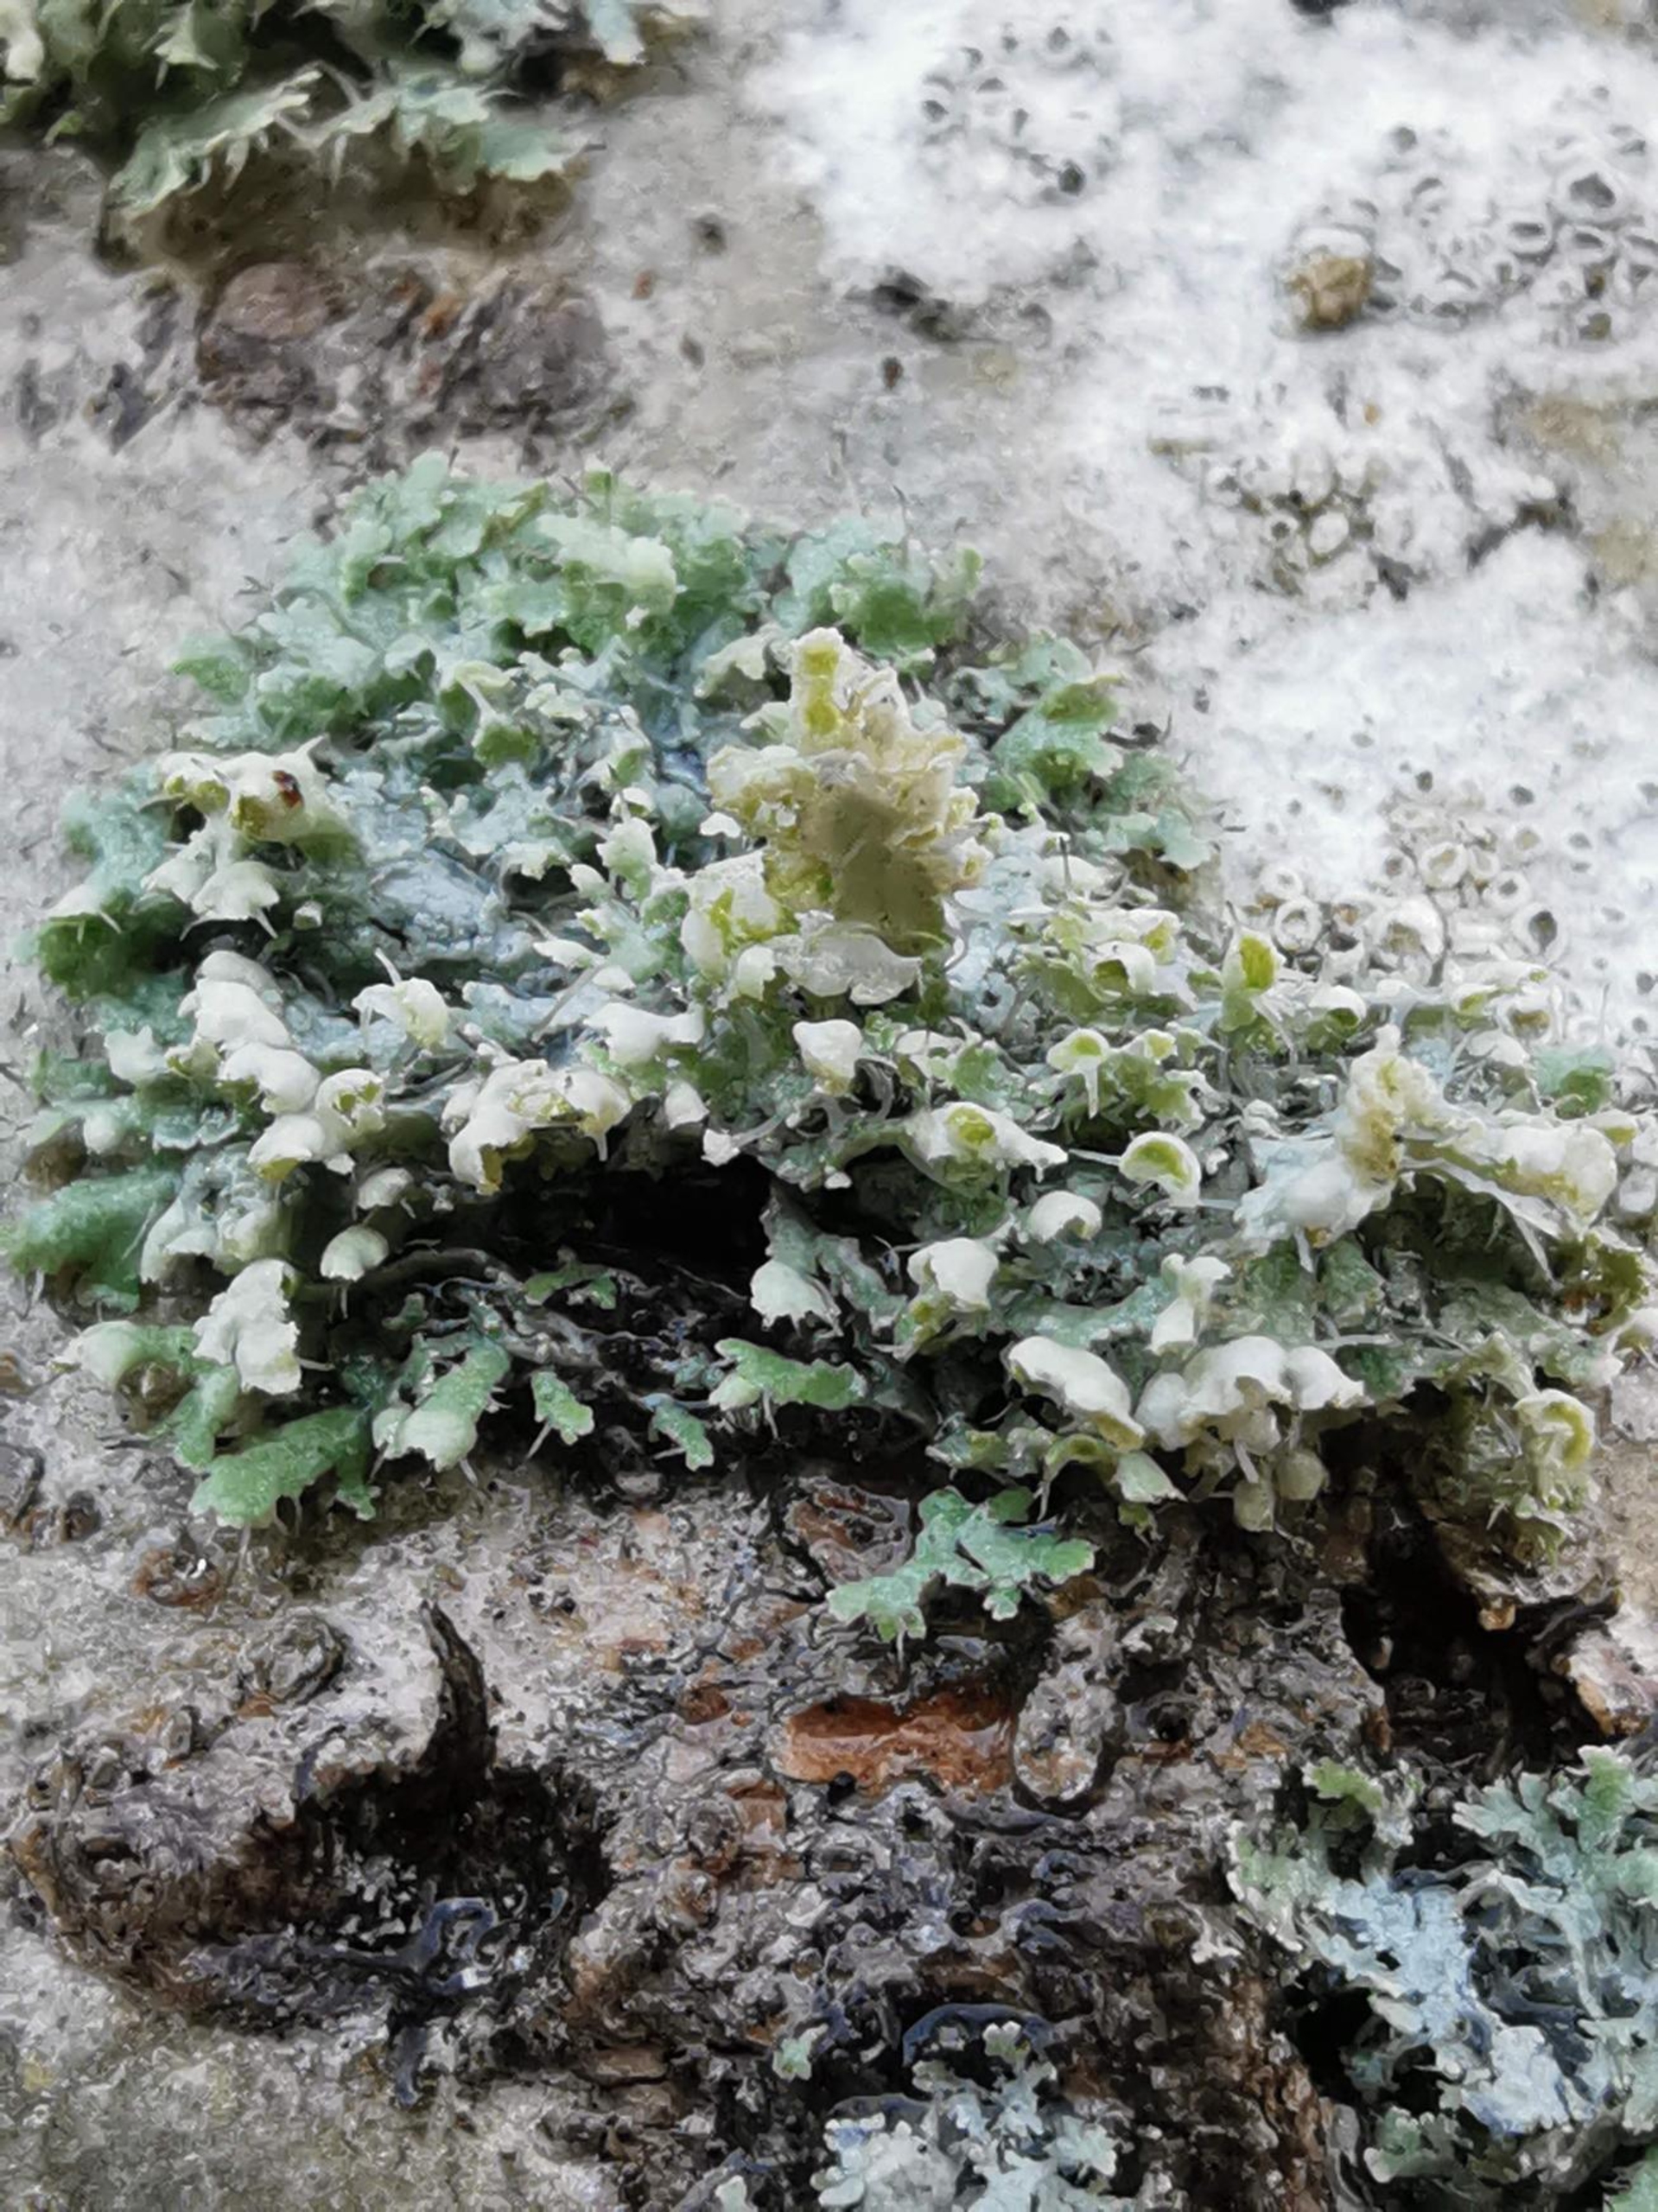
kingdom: Fungi
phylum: Ascomycota
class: Lecanoromycetes
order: Caliciales
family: Physciaceae
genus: Physcia
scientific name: Physcia adscendens
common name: Hætte-rosetlav
